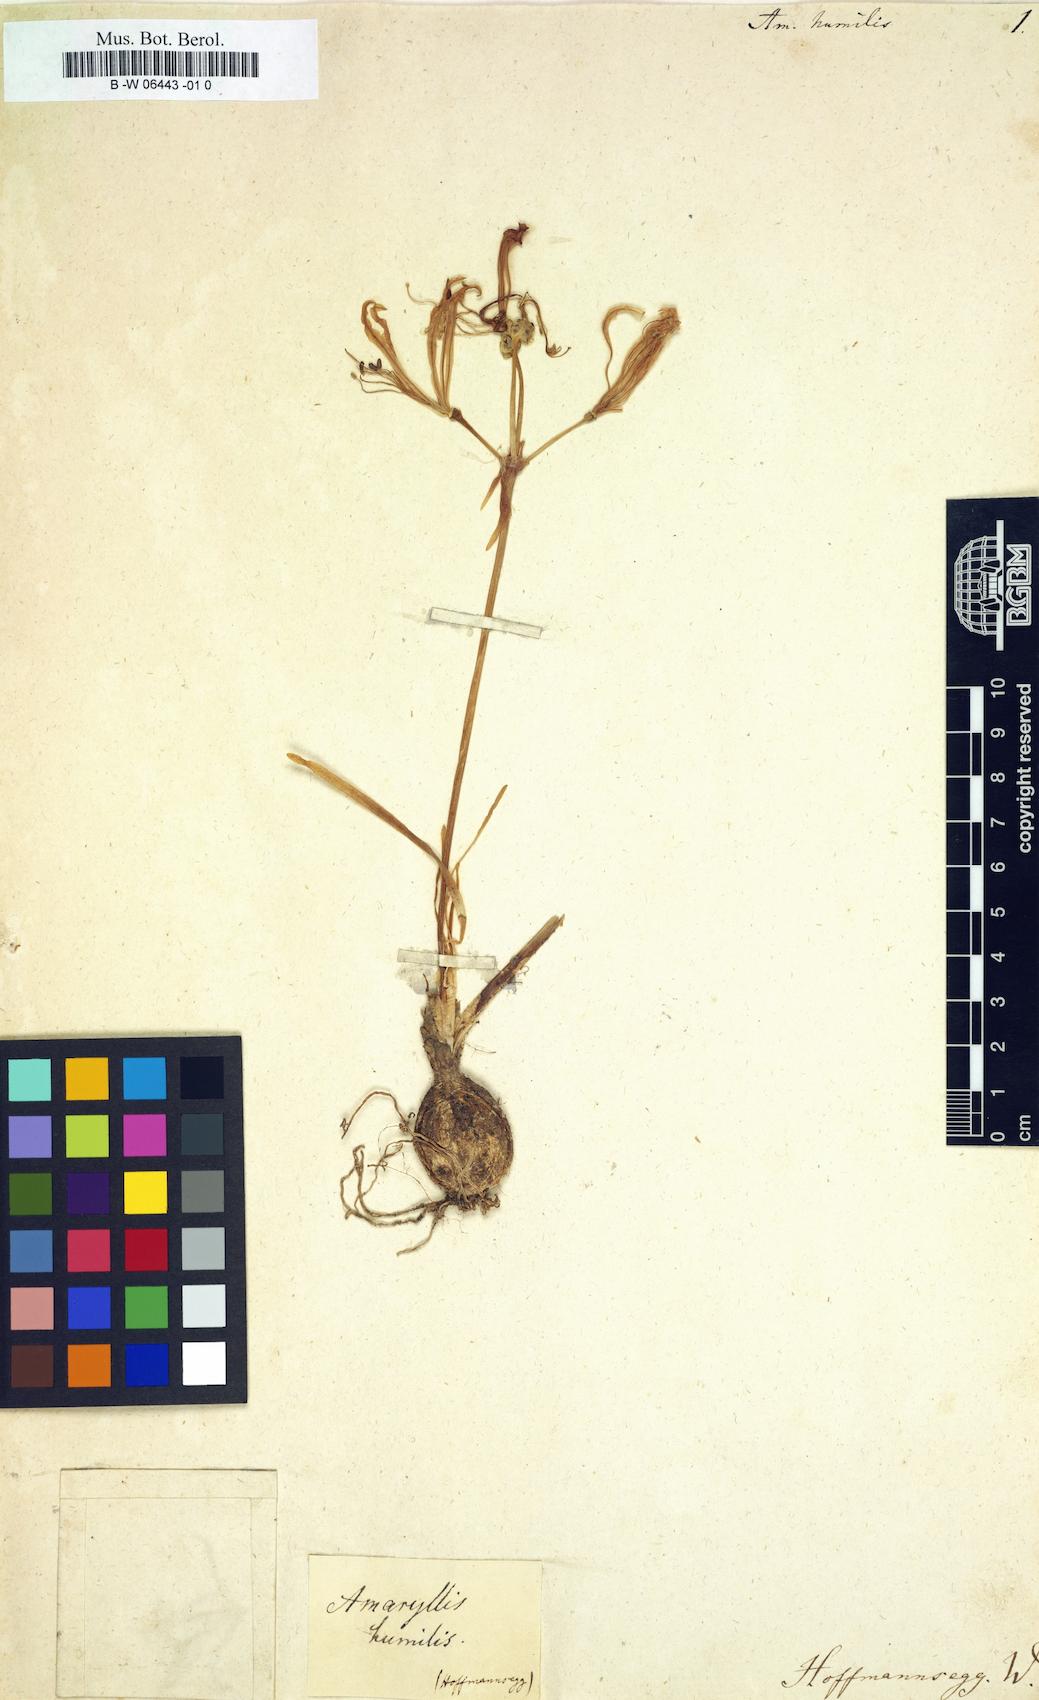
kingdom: Plantae
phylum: Tracheophyta
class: Liliopsida
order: Asparagales
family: Amaryllidaceae
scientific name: Amaryllidaceae
